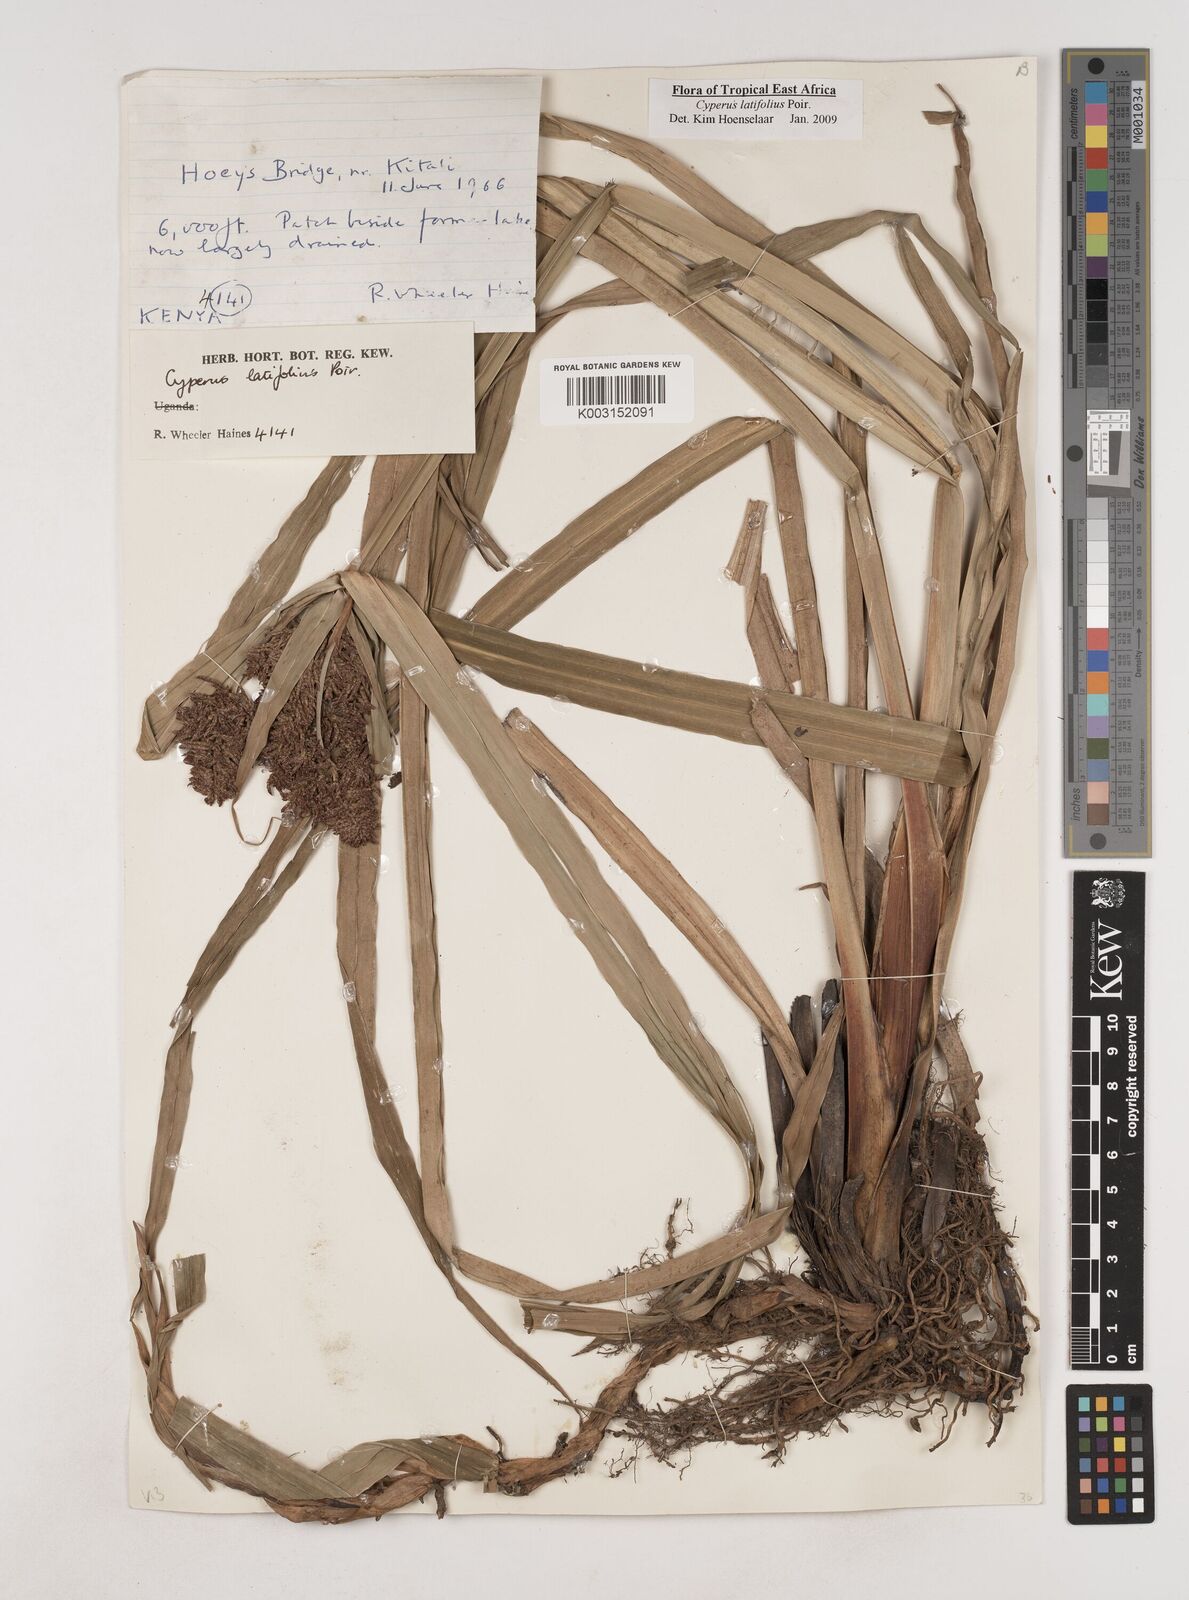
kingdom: Plantae
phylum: Tracheophyta
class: Liliopsida
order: Poales
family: Cyperaceae
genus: Cyperus
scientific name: Cyperus latifolius
